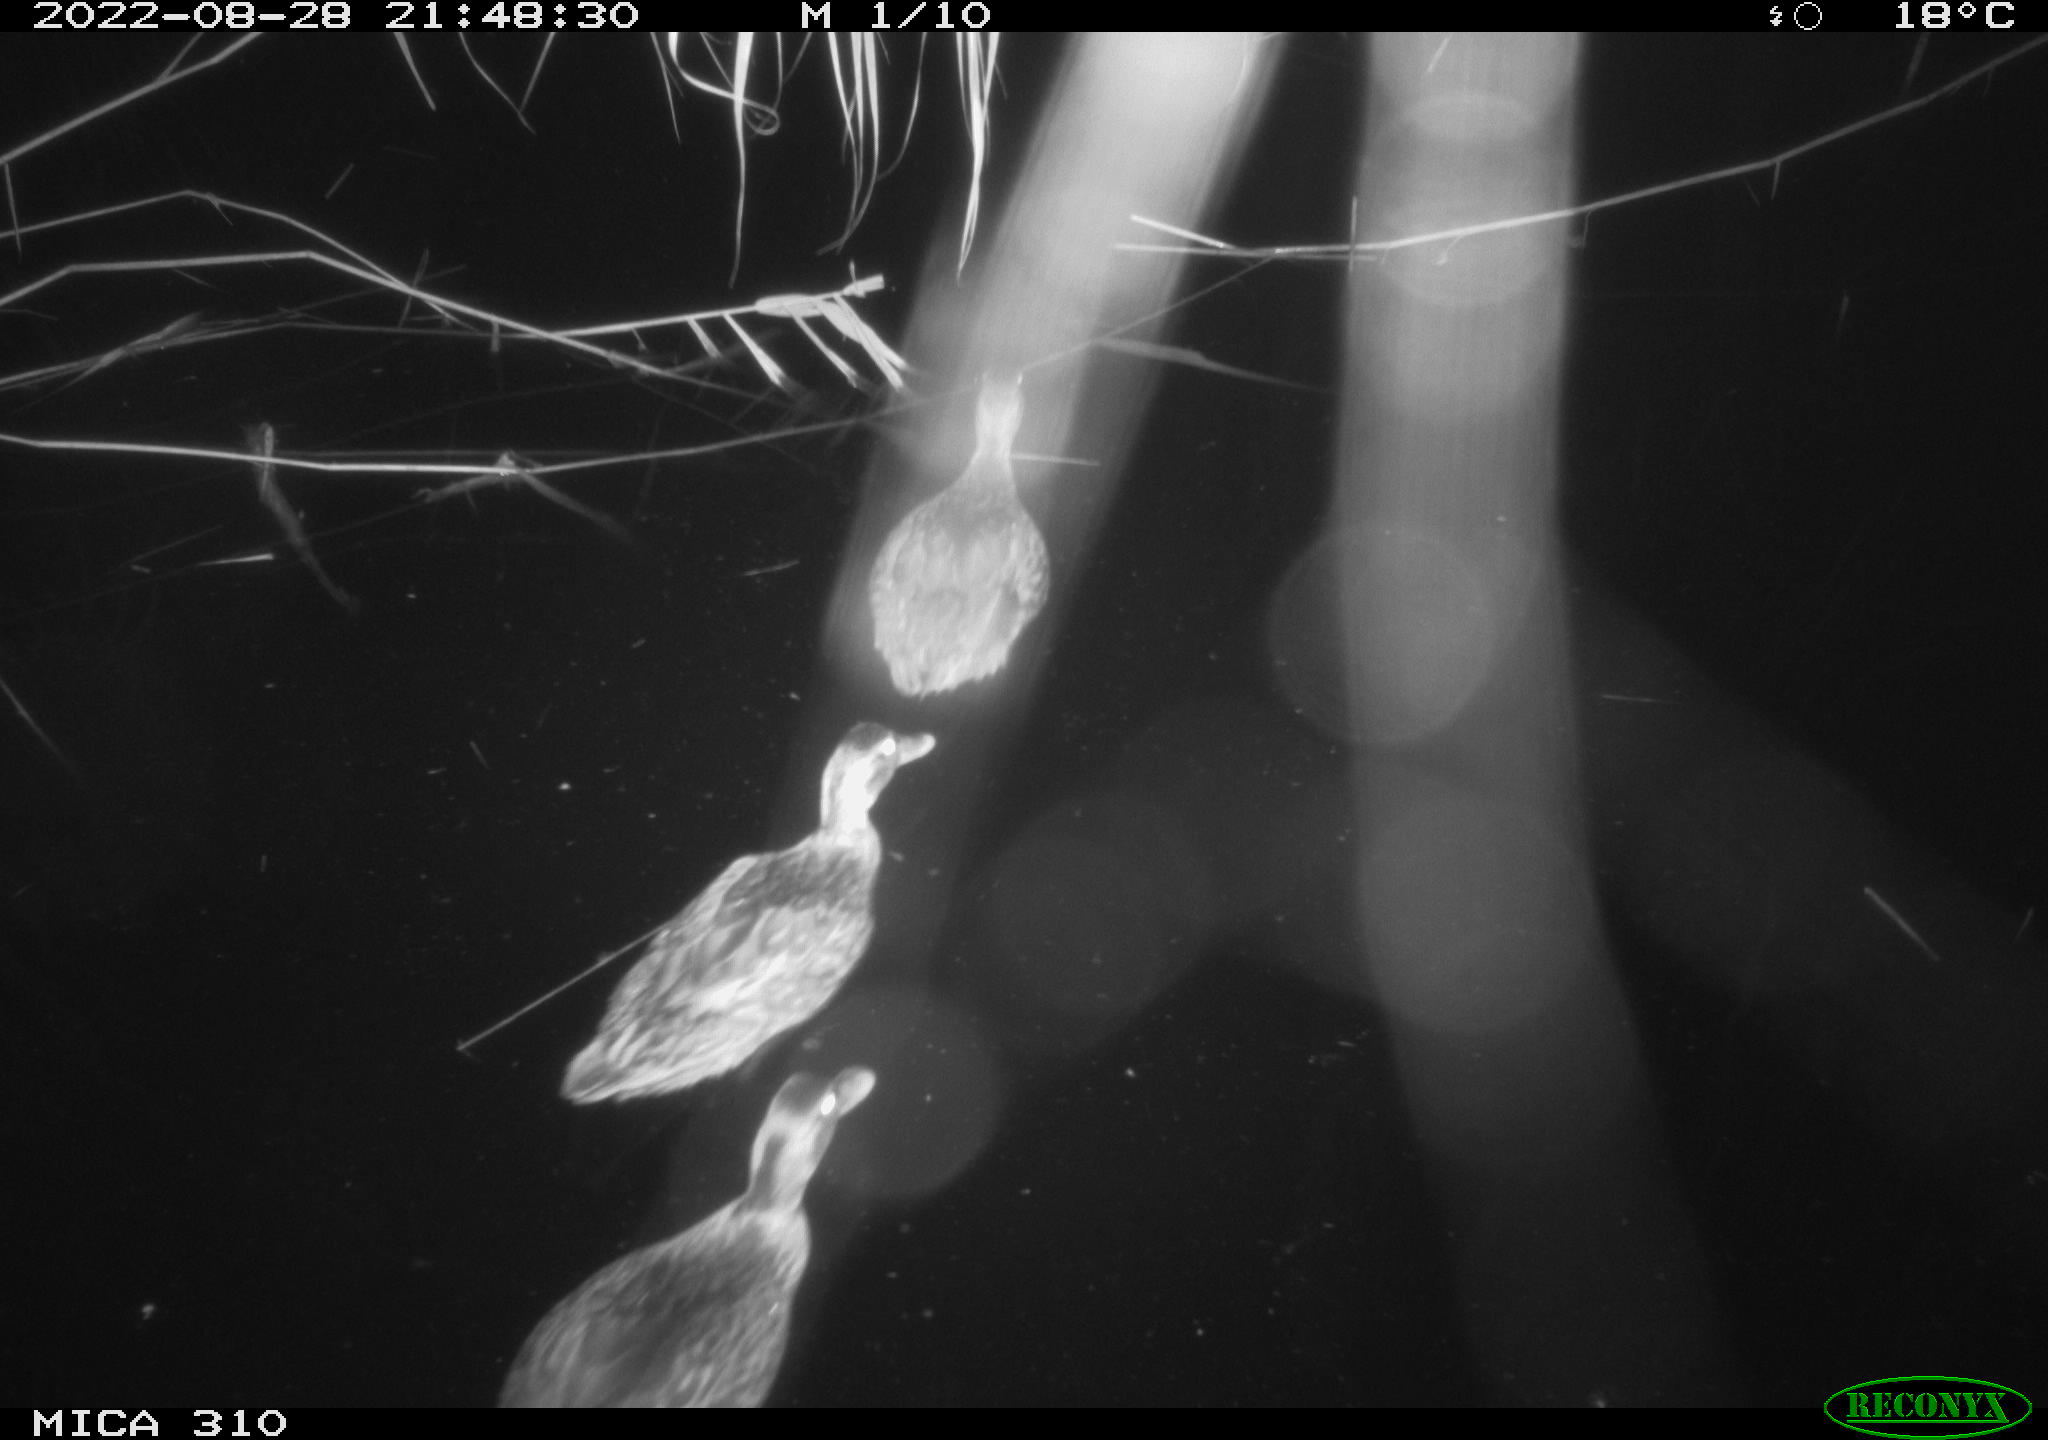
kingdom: Animalia
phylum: Chordata
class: Aves
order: Anseriformes
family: Anatidae
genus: Anas
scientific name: Anas platyrhynchos
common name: Mallard
